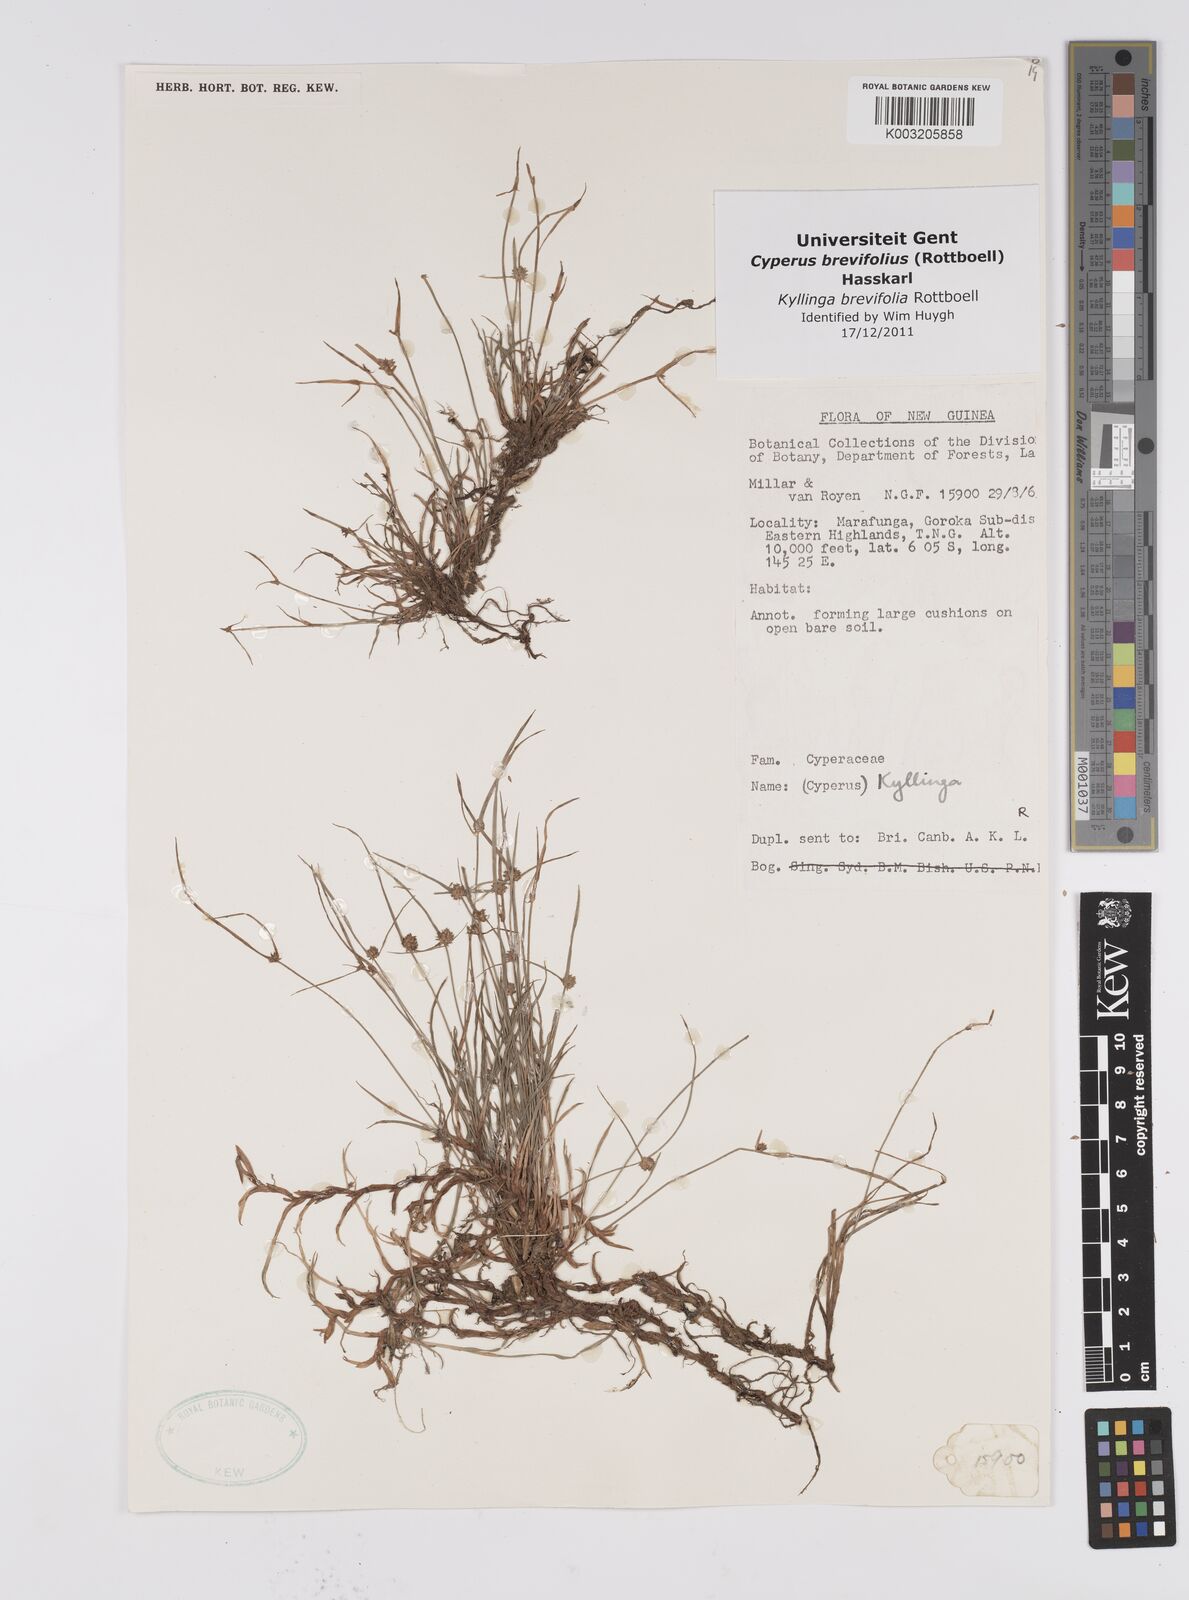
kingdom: Plantae
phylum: Tracheophyta
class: Liliopsida
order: Poales
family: Cyperaceae
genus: Cyperus
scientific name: Cyperus brevifolius
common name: Globe kyllinga
